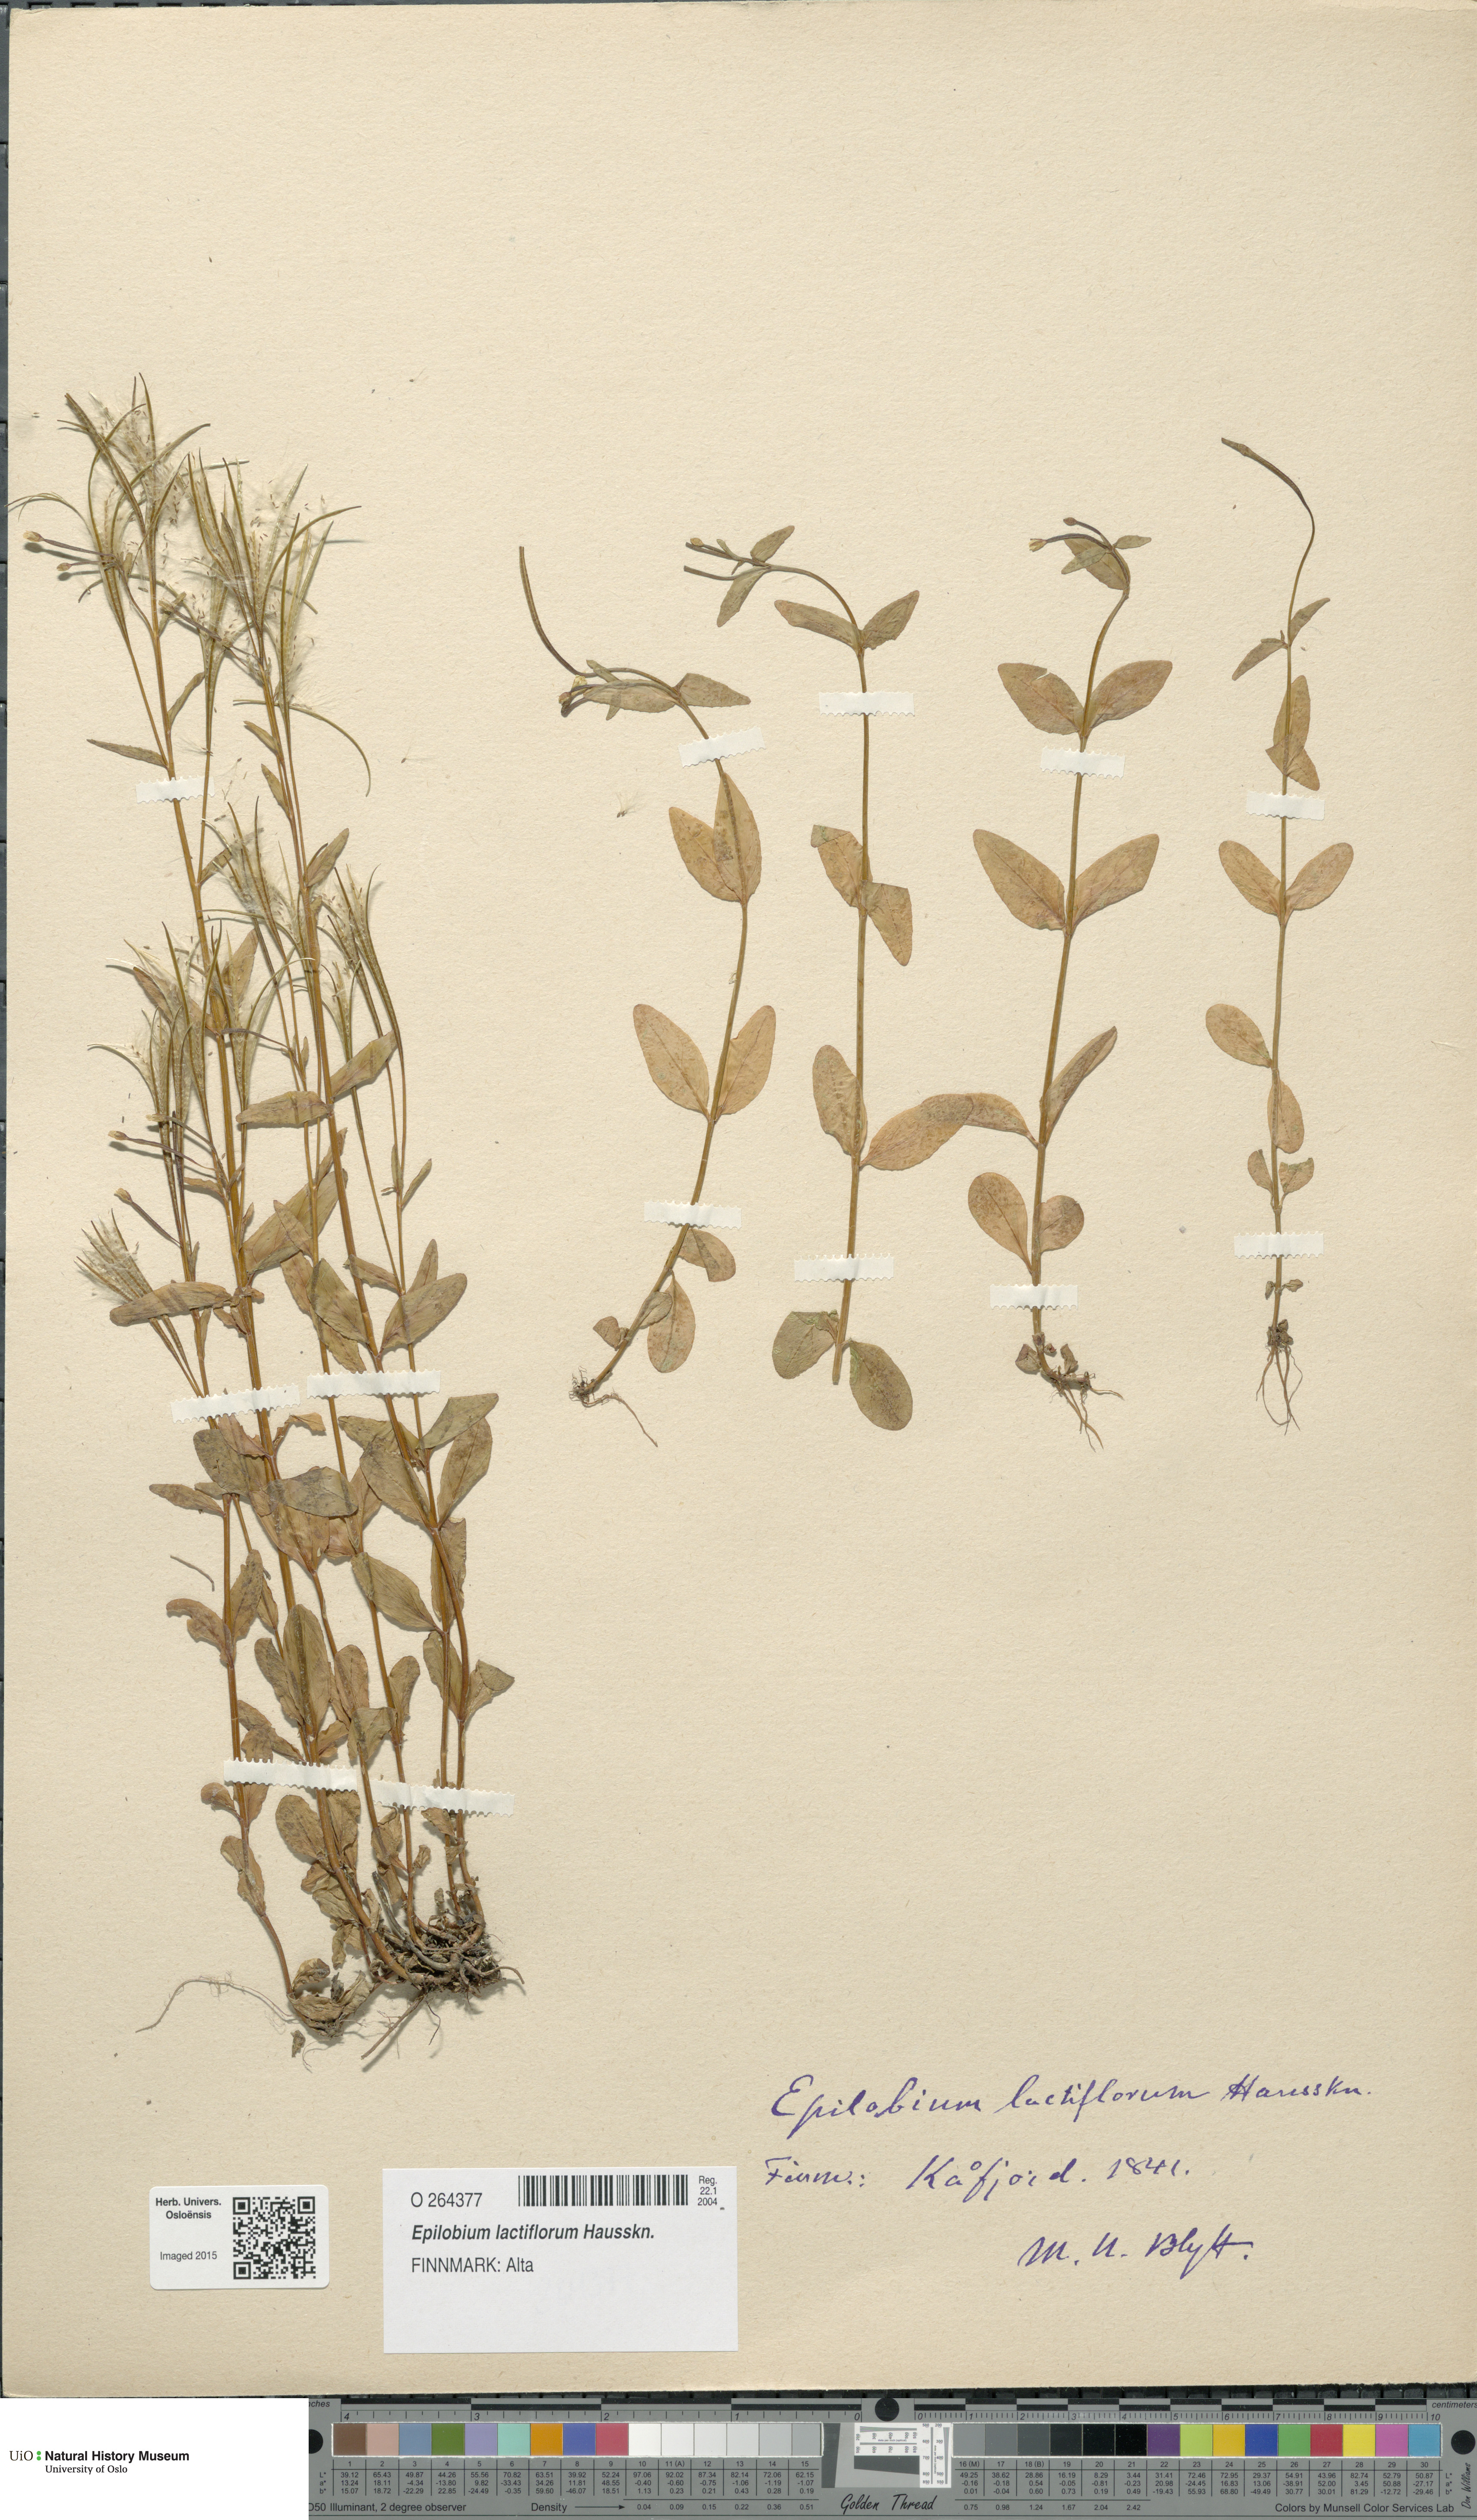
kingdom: Plantae
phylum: Tracheophyta
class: Magnoliopsida
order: Myrtales
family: Onagraceae
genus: Epilobium
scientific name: Epilobium lactiflorum
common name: Milkflower willowherb
